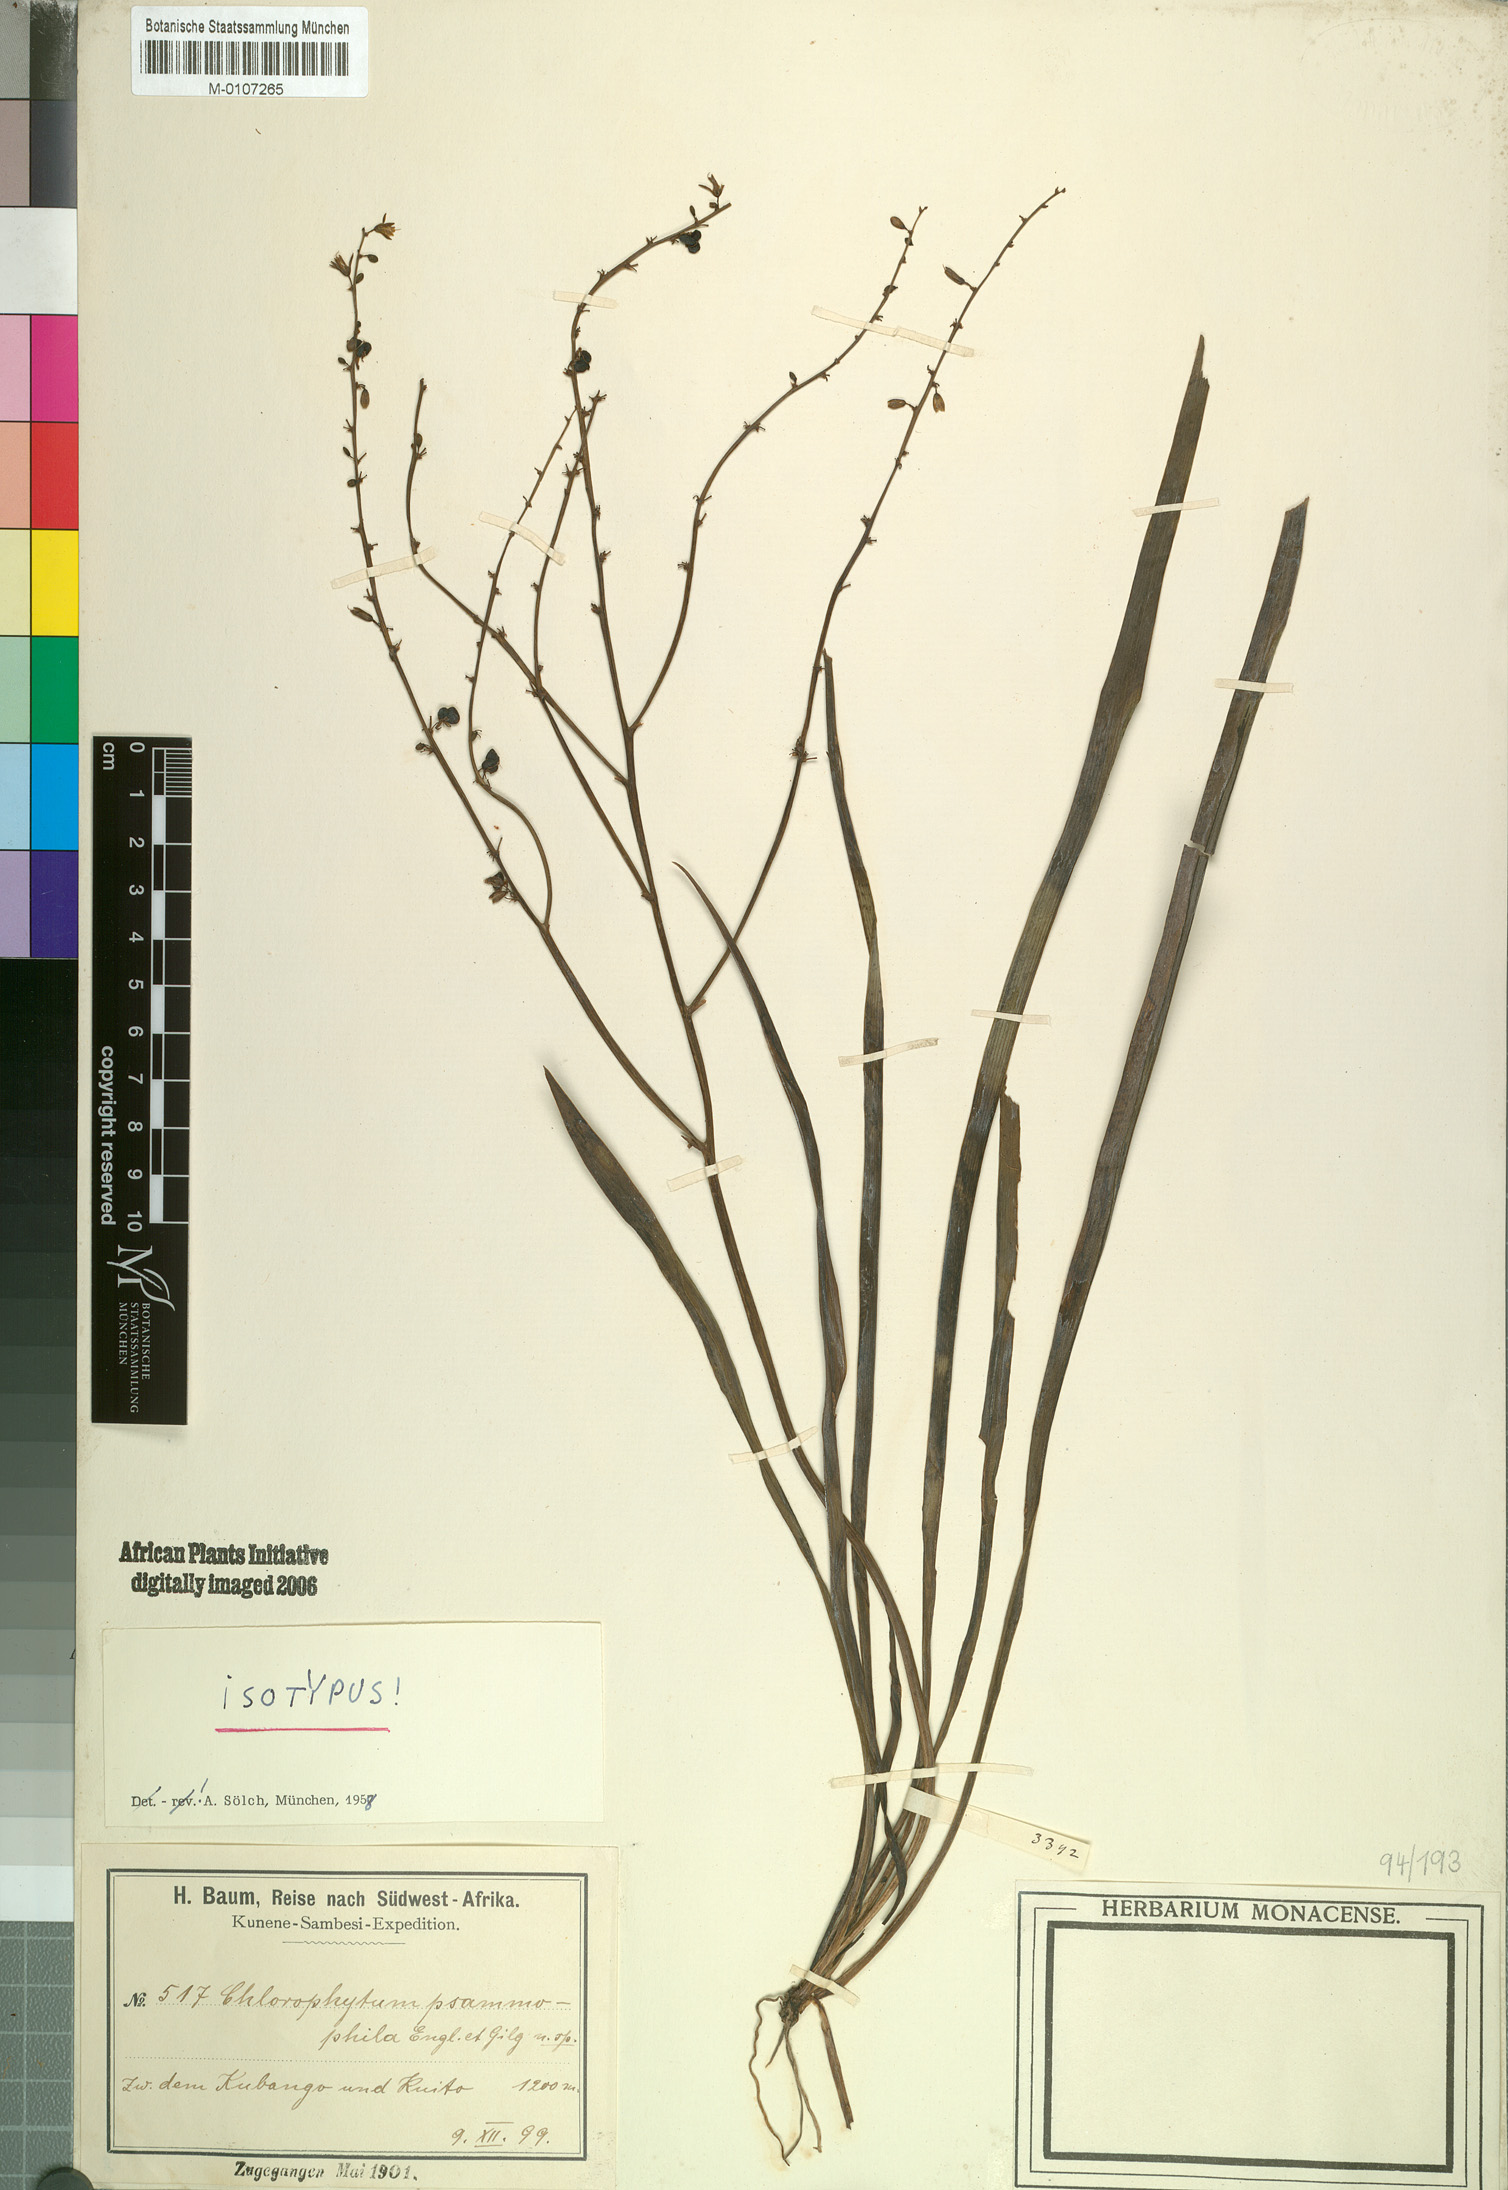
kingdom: Plantae
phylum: Tracheophyta
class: Liliopsida
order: Asparagales
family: Asparagaceae
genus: Chlorophytum
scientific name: Chlorophytum gallabatense
